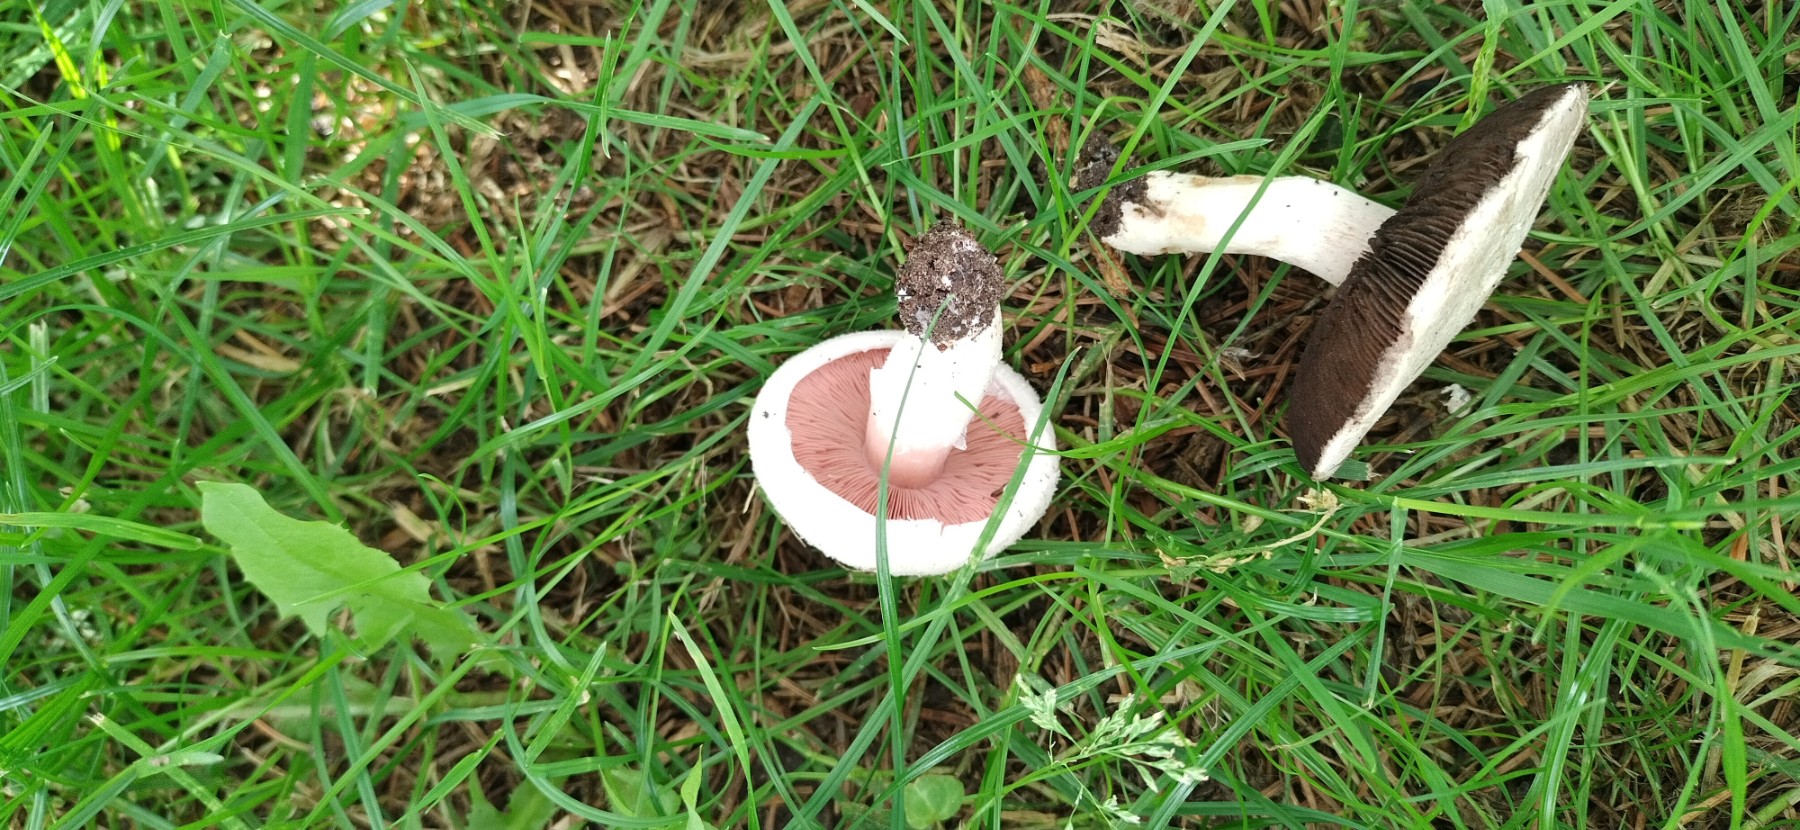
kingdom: Fungi
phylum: Basidiomycota
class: Agaricomycetes
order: Agaricales
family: Agaricaceae
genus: Agaricus
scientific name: Agaricus campestris
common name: mark-champignon
